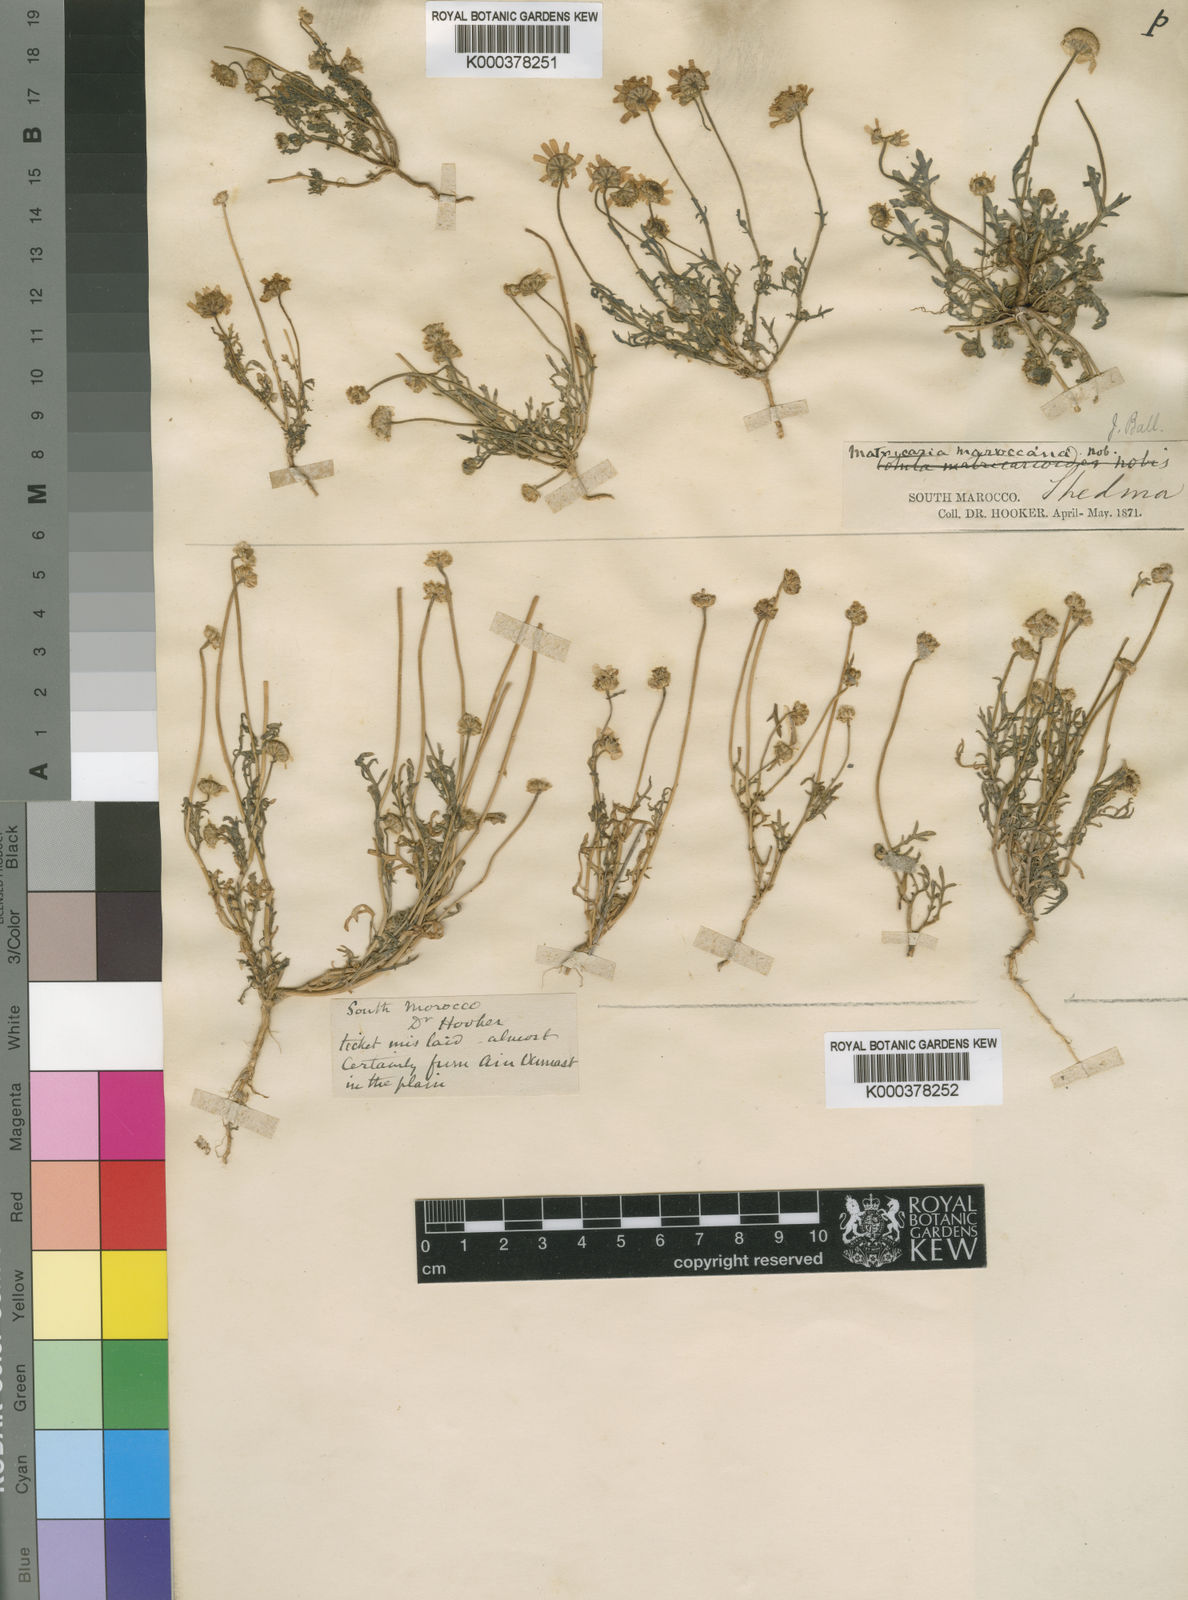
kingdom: Plantae
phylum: Tracheophyta
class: Magnoliopsida
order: Asterales
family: Asteraceae
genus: Otoglyphis
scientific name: Otoglyphis pubescens
